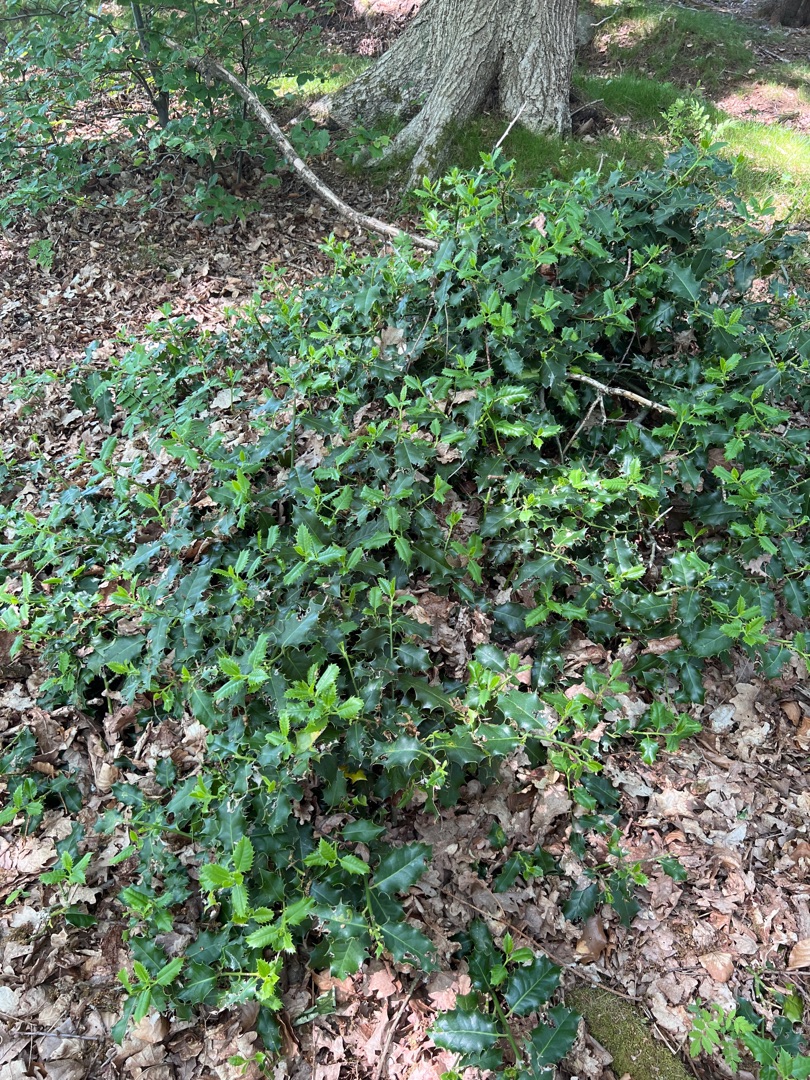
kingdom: Plantae
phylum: Tracheophyta
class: Magnoliopsida
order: Aquifoliales
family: Aquifoliaceae
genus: Ilex
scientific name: Ilex aquifolium
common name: Kristtorn
